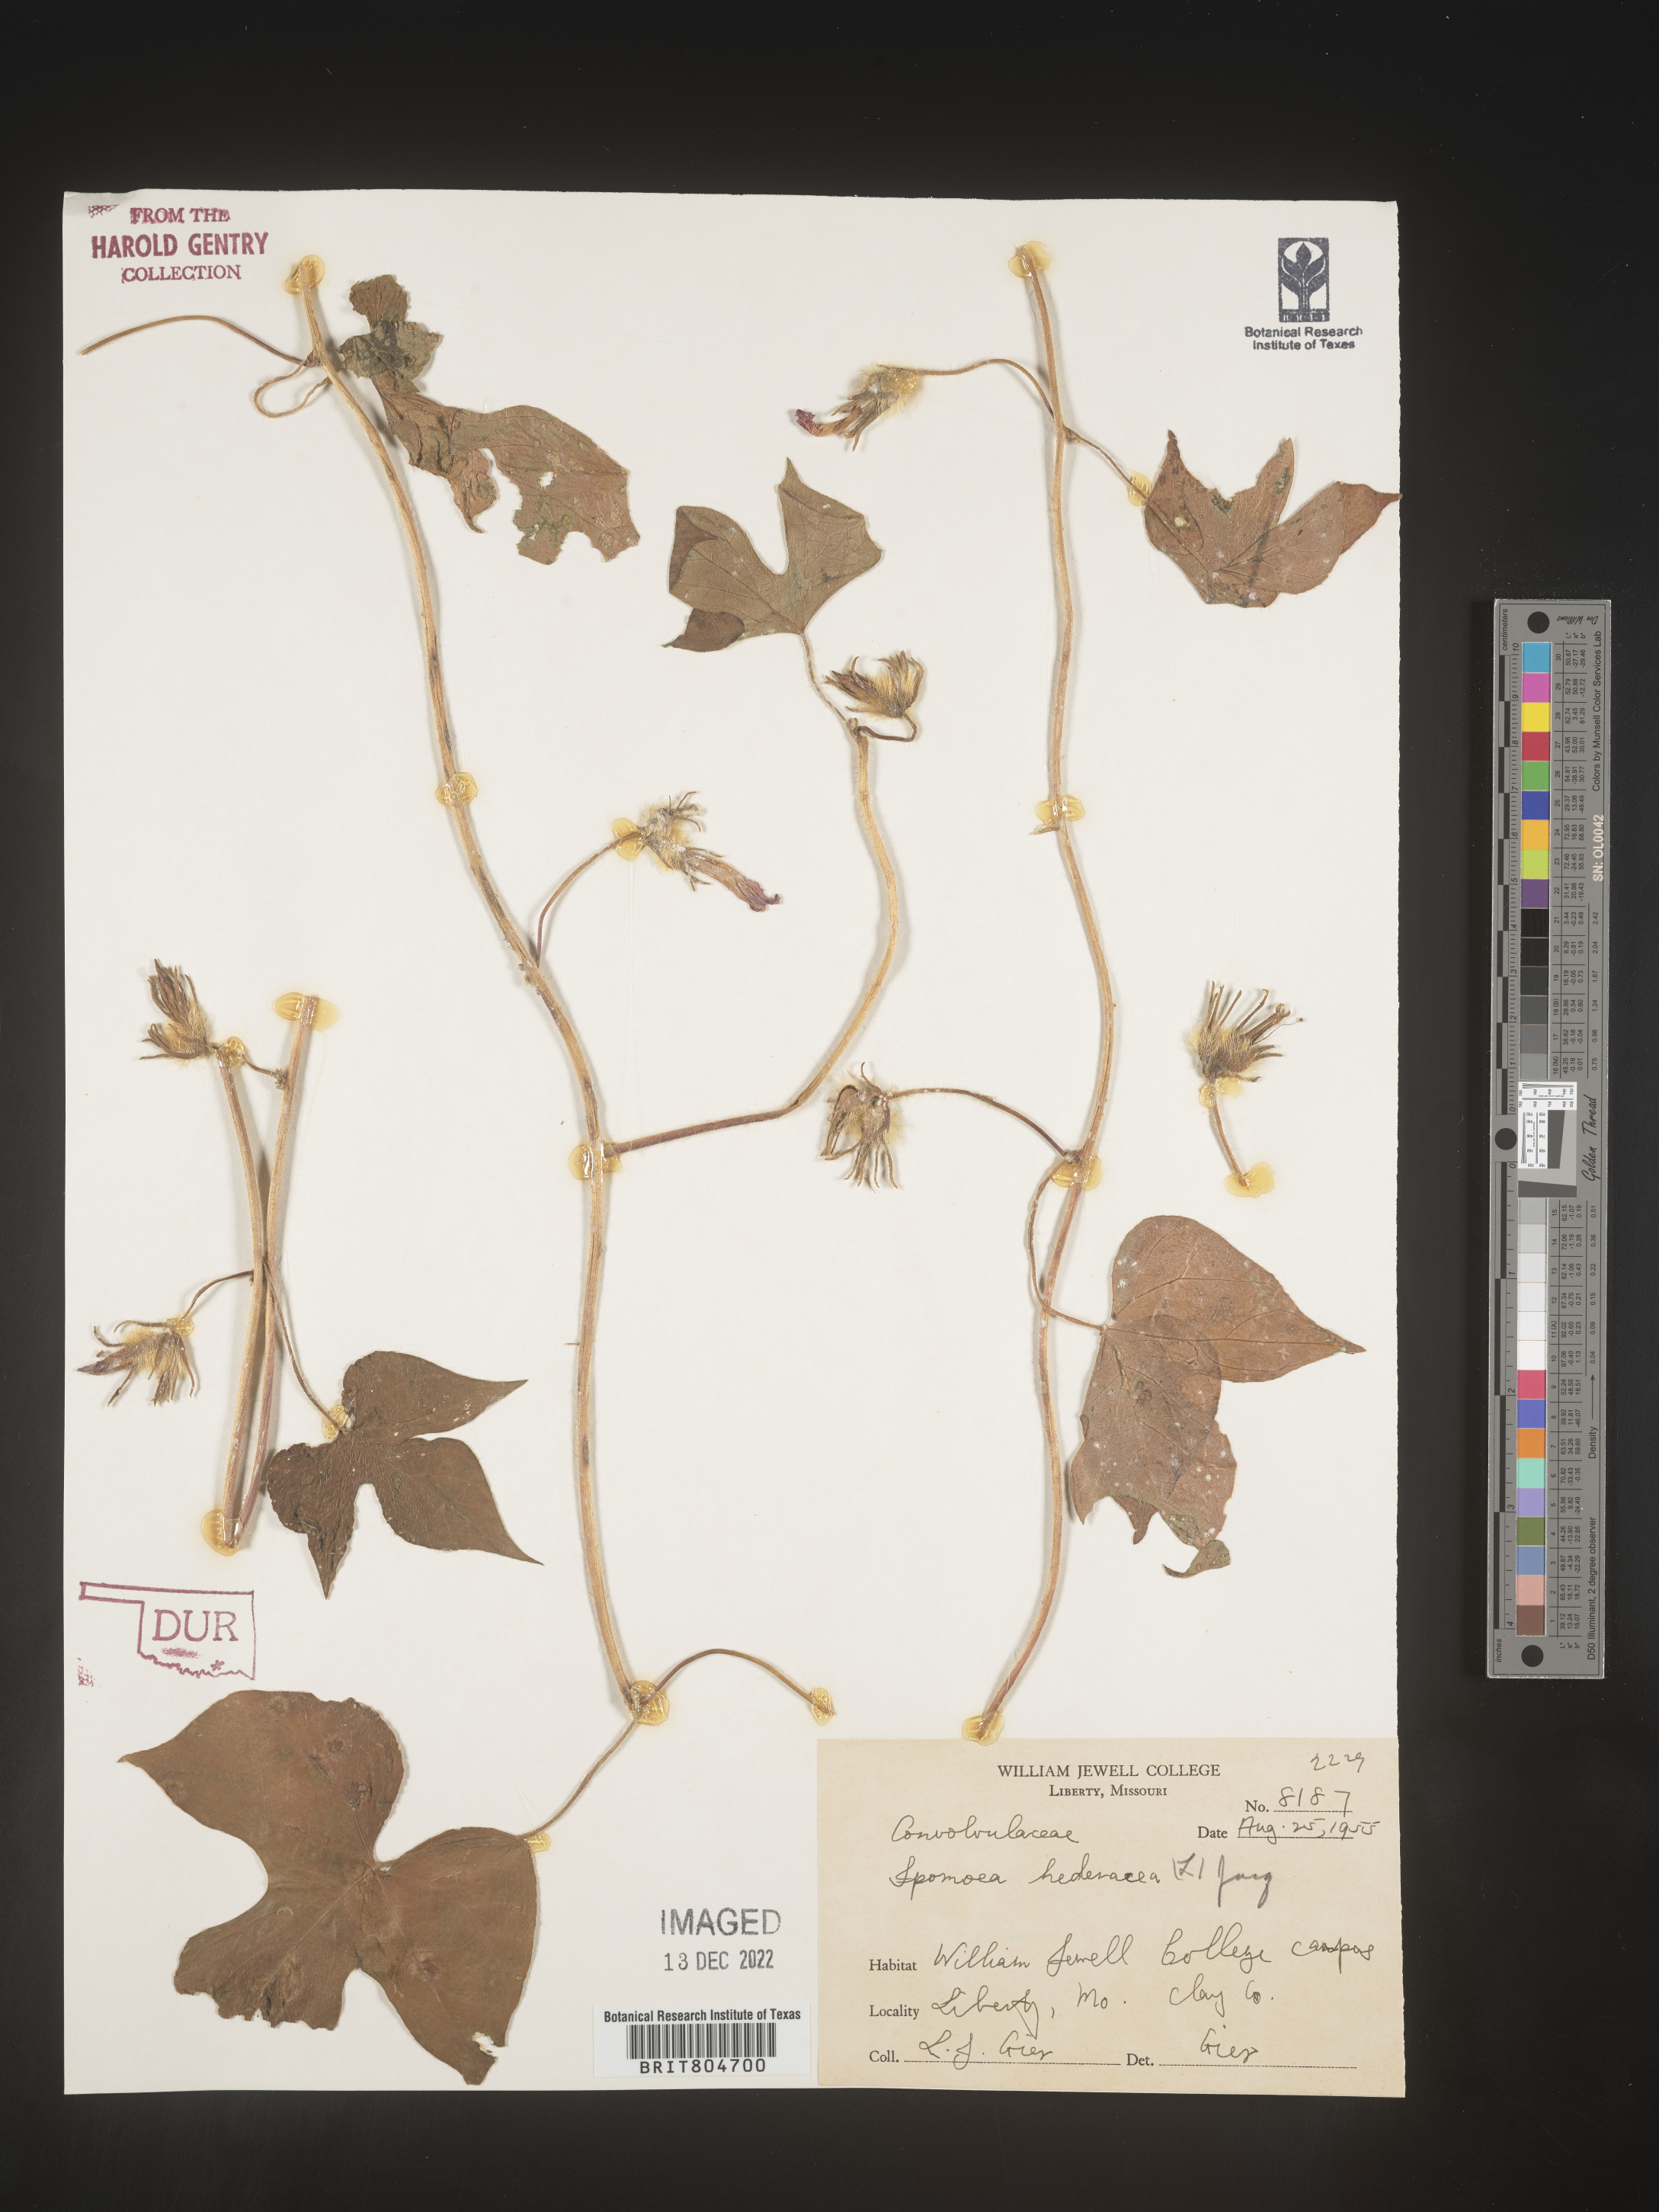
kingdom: Plantae
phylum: Tracheophyta
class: Magnoliopsida
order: Solanales
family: Convolvulaceae
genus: Ipomoea
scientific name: Ipomoea hederacea
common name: Ivy-leaved morning-glory
